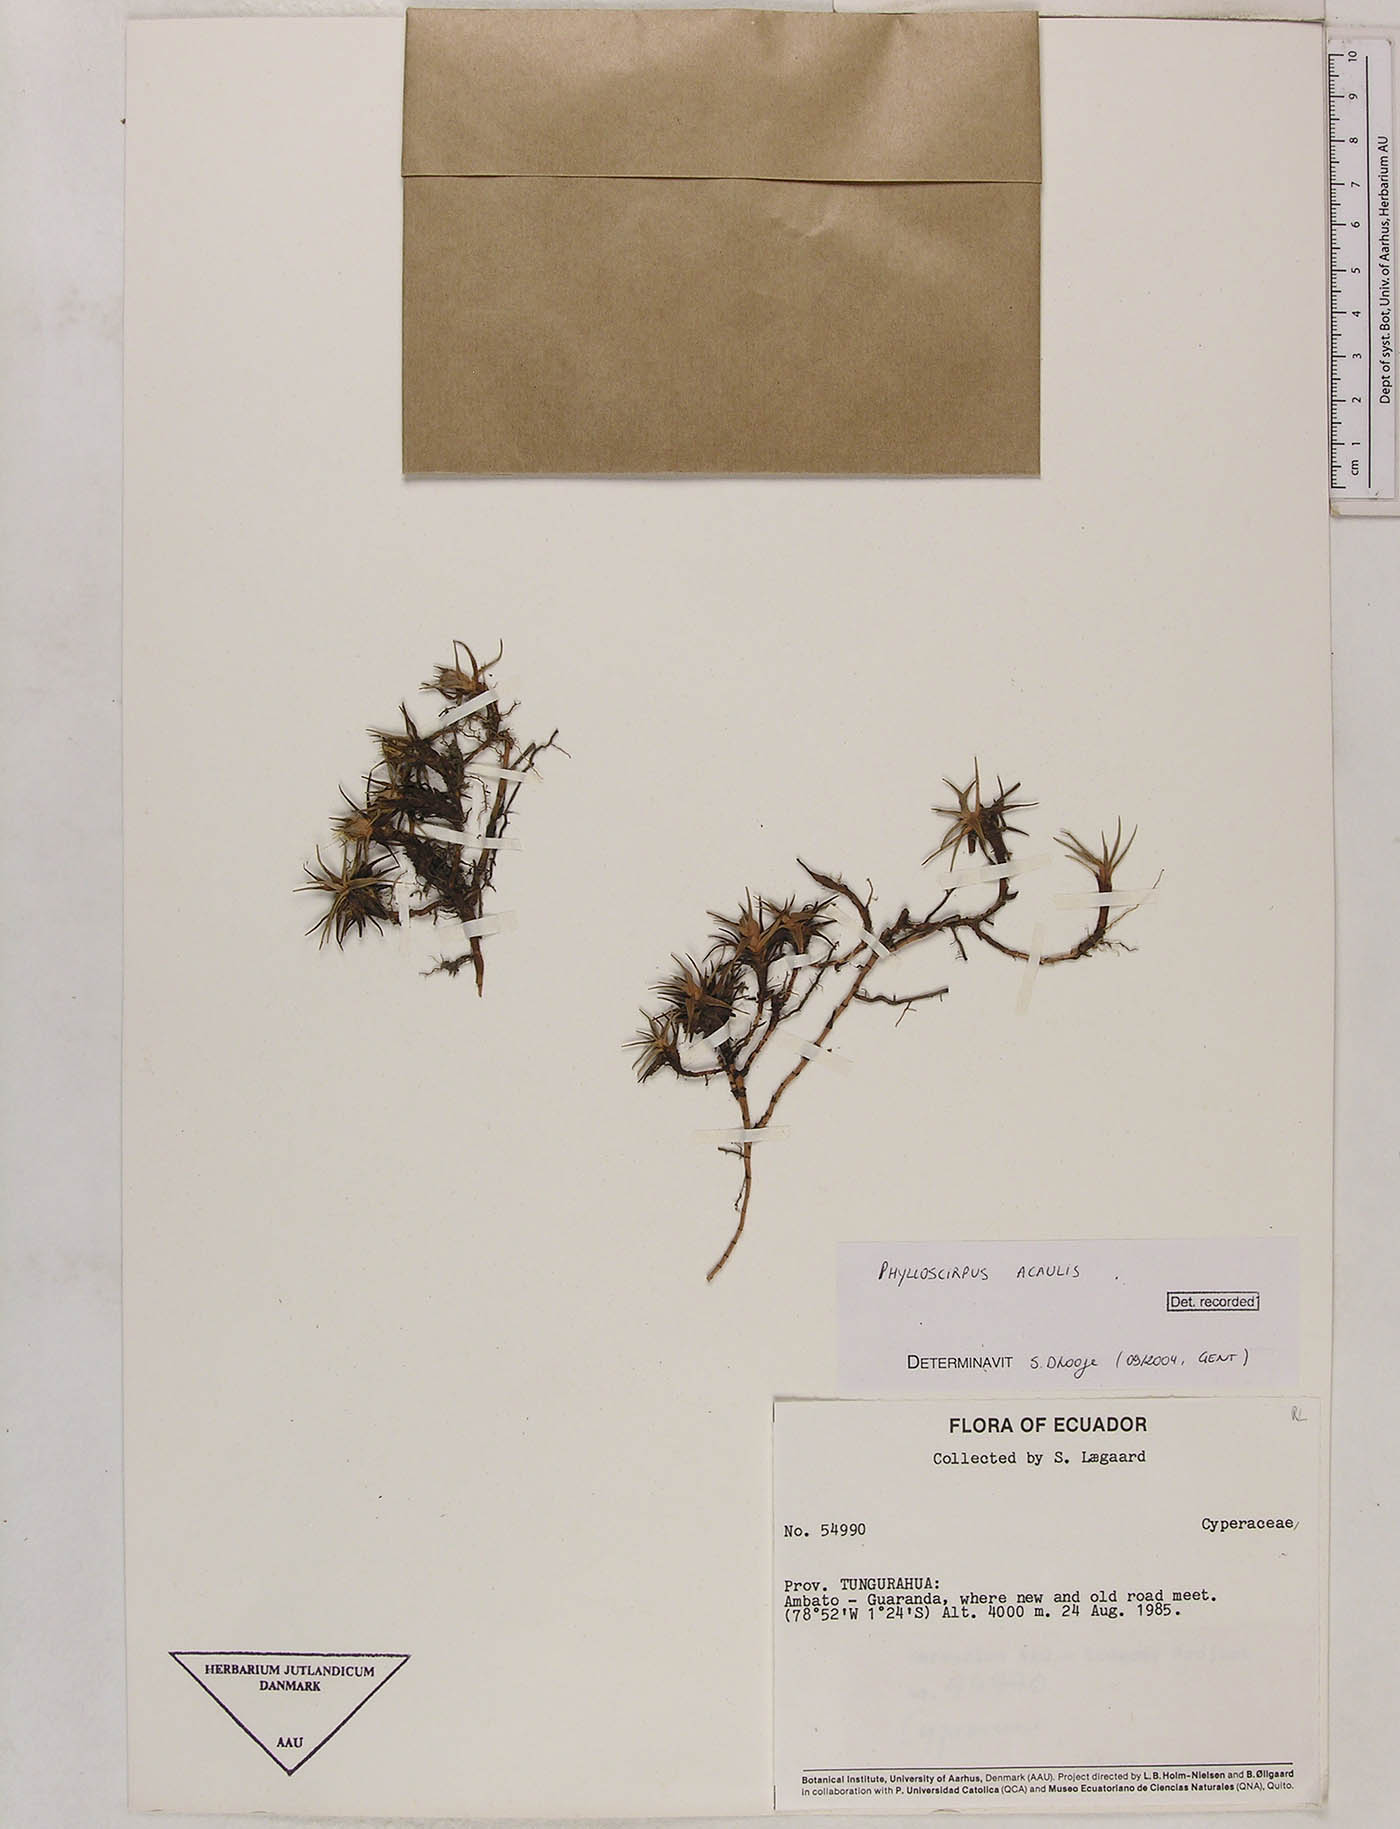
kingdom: Plantae
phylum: Tracheophyta
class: Liliopsida
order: Poales
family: Cyperaceae
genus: Phylloscirpus
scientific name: Phylloscirpus acaulis
